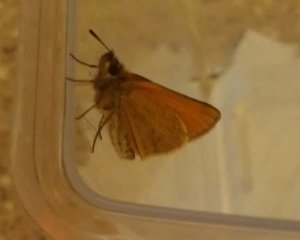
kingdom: Animalia
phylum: Arthropoda
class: Insecta
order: Lepidoptera
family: Hesperiidae
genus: Thymelicus
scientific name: Thymelicus lineola
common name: European Skipper
